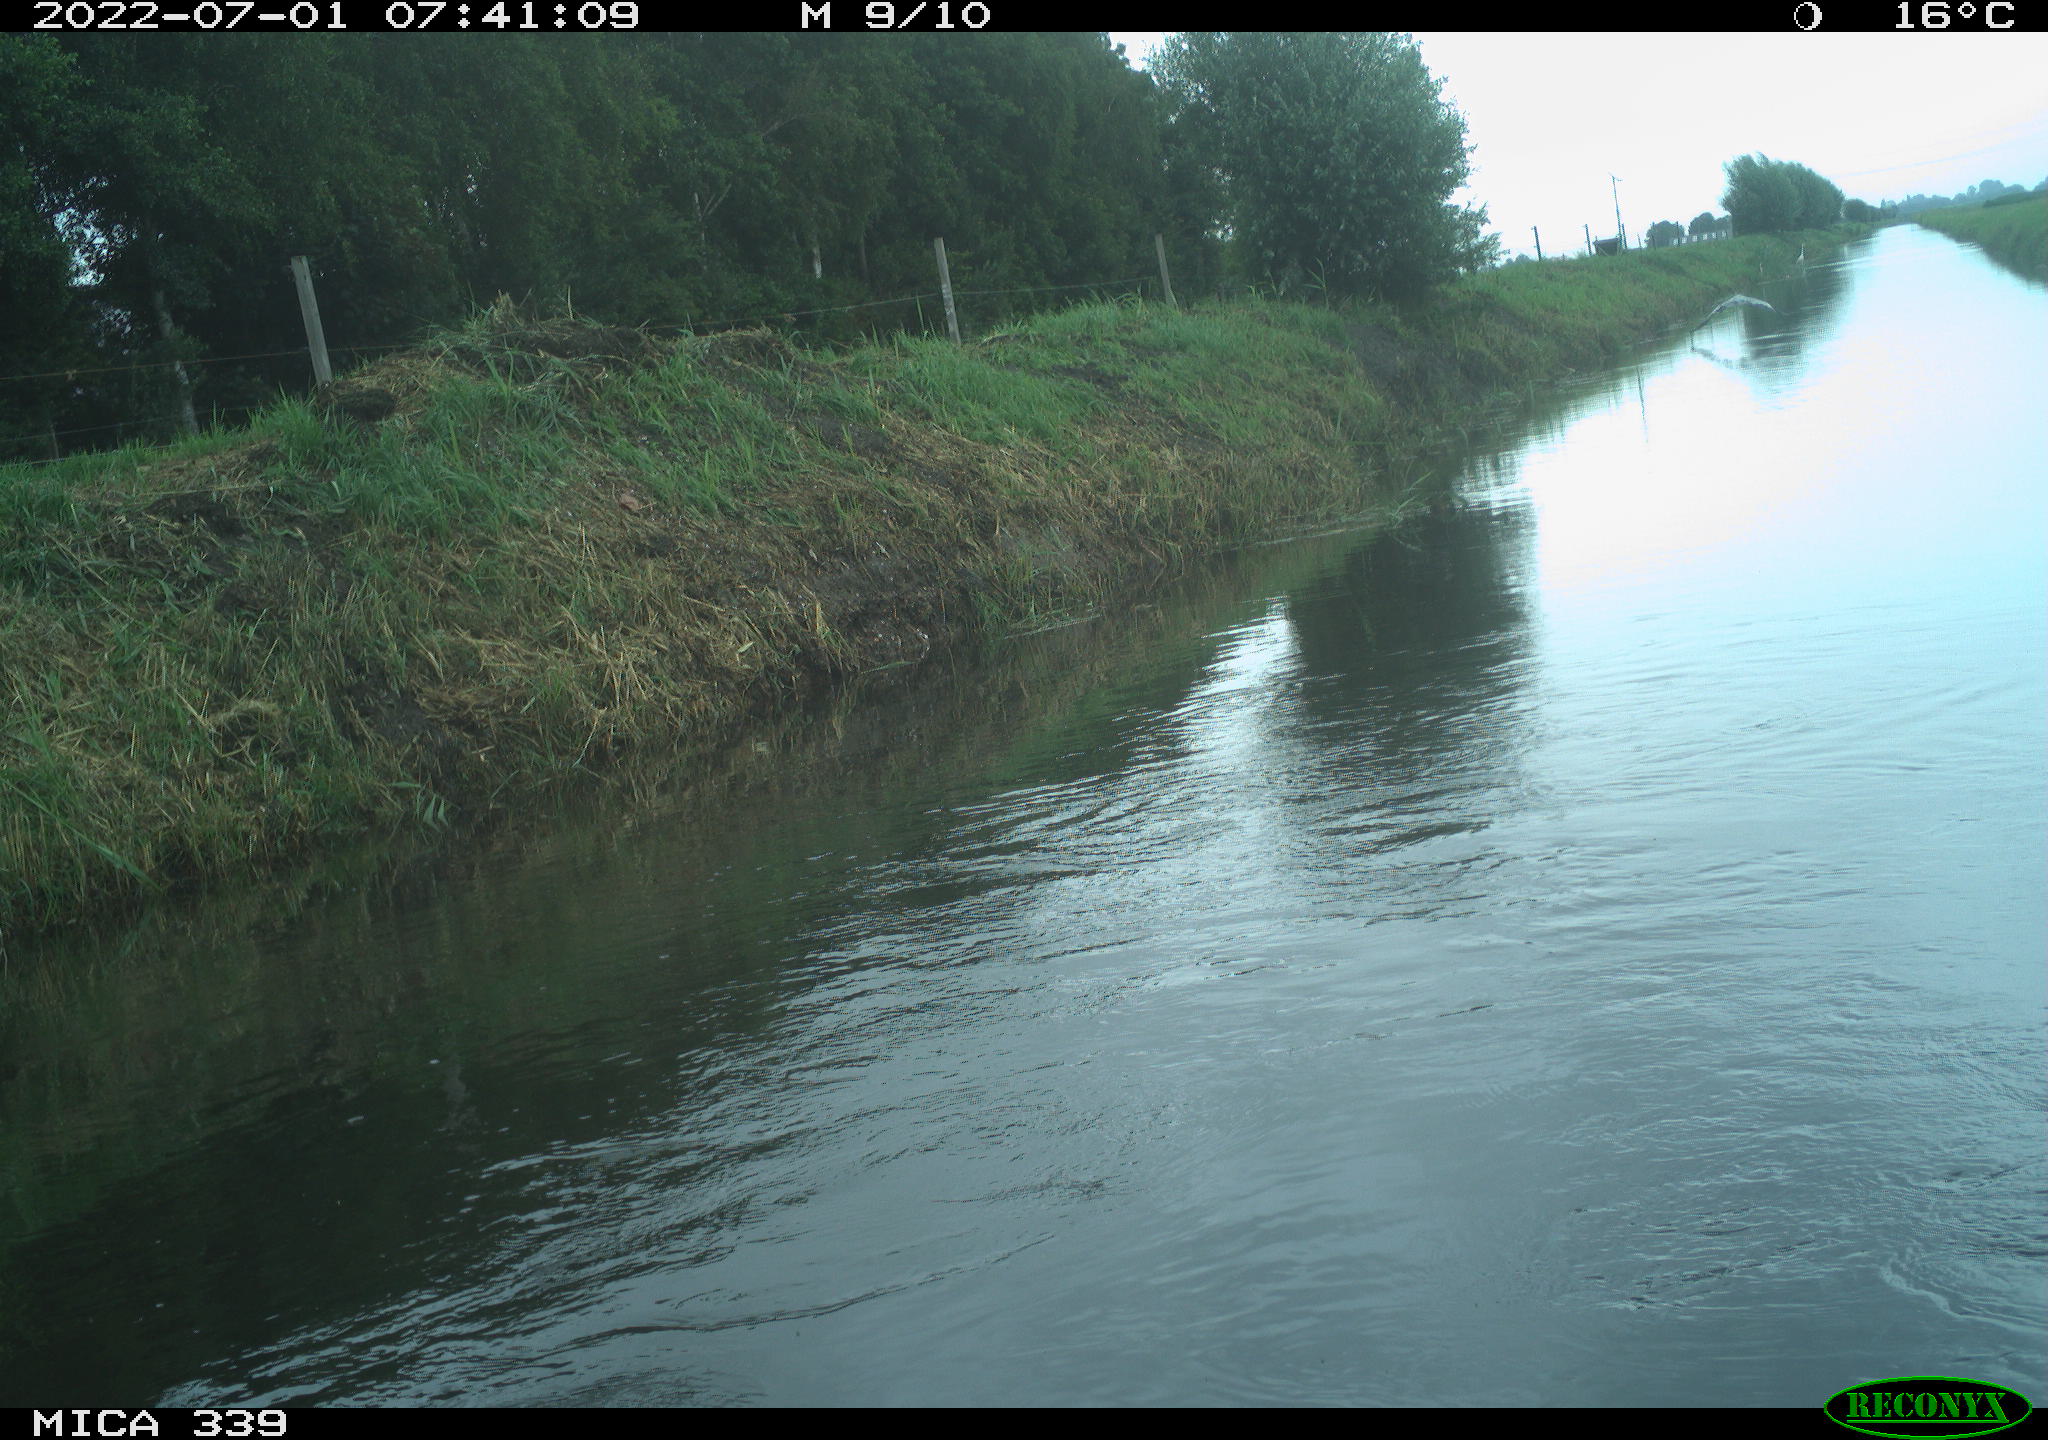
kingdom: Animalia
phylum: Chordata
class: Aves
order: Pelecaniformes
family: Ardeidae
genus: Ardea
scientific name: Ardea cinerea
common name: Grey heron
